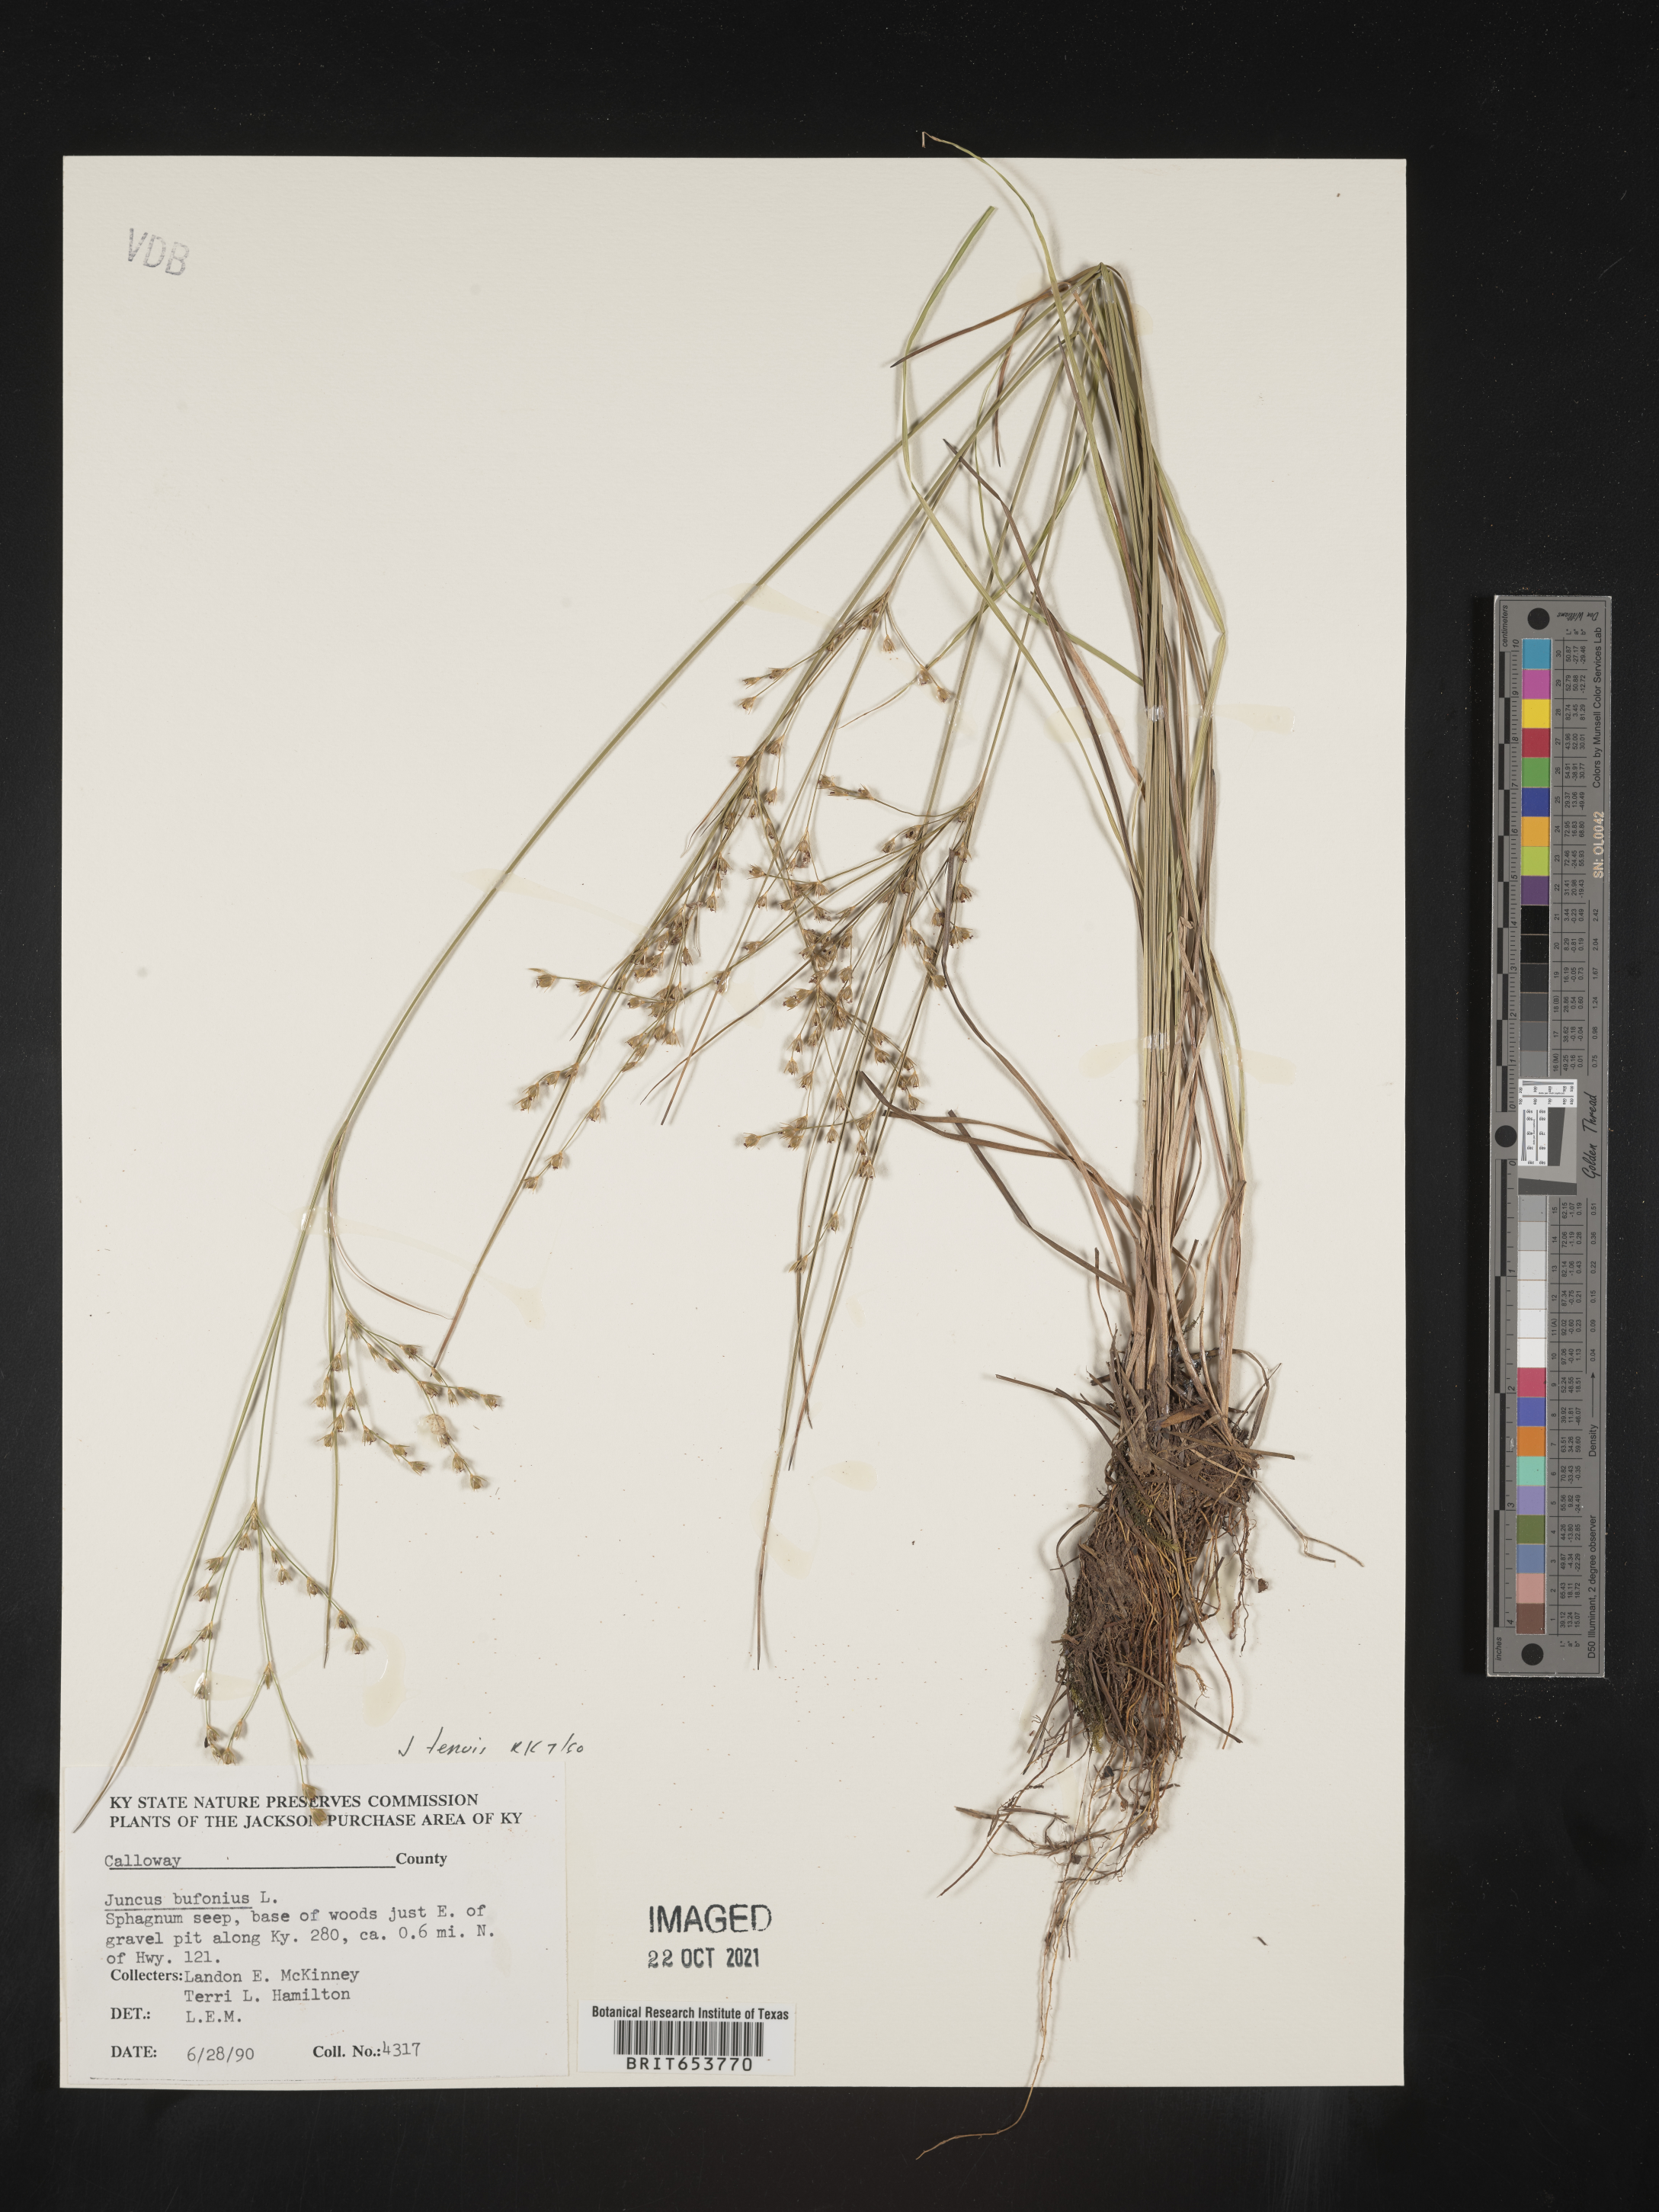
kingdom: Plantae
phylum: Tracheophyta
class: Liliopsida
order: Poales
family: Juncaceae
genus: Juncus
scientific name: Juncus tenuis
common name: Slender rush
